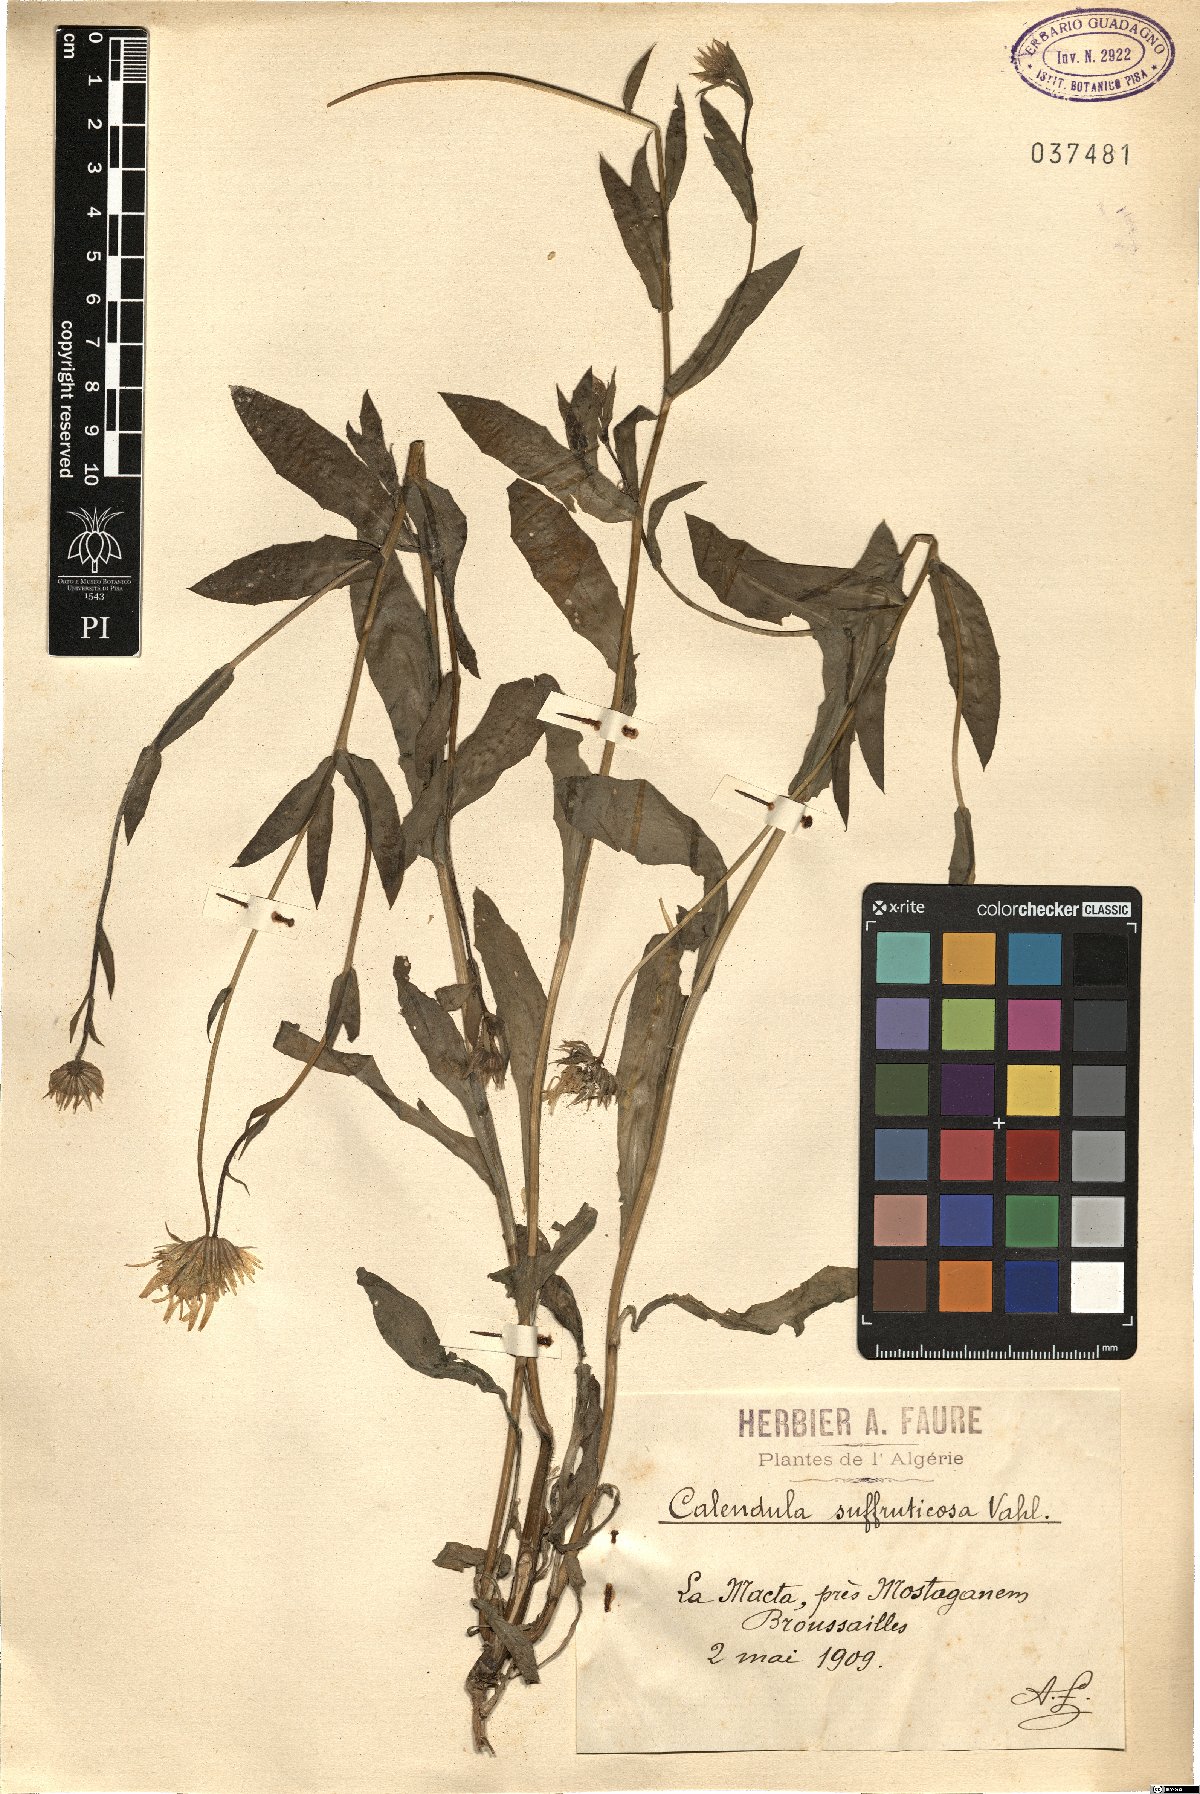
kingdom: Plantae
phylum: Tracheophyta
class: Magnoliopsida
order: Asterales
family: Asteraceae
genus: Calendula
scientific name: Calendula suffruticosa
